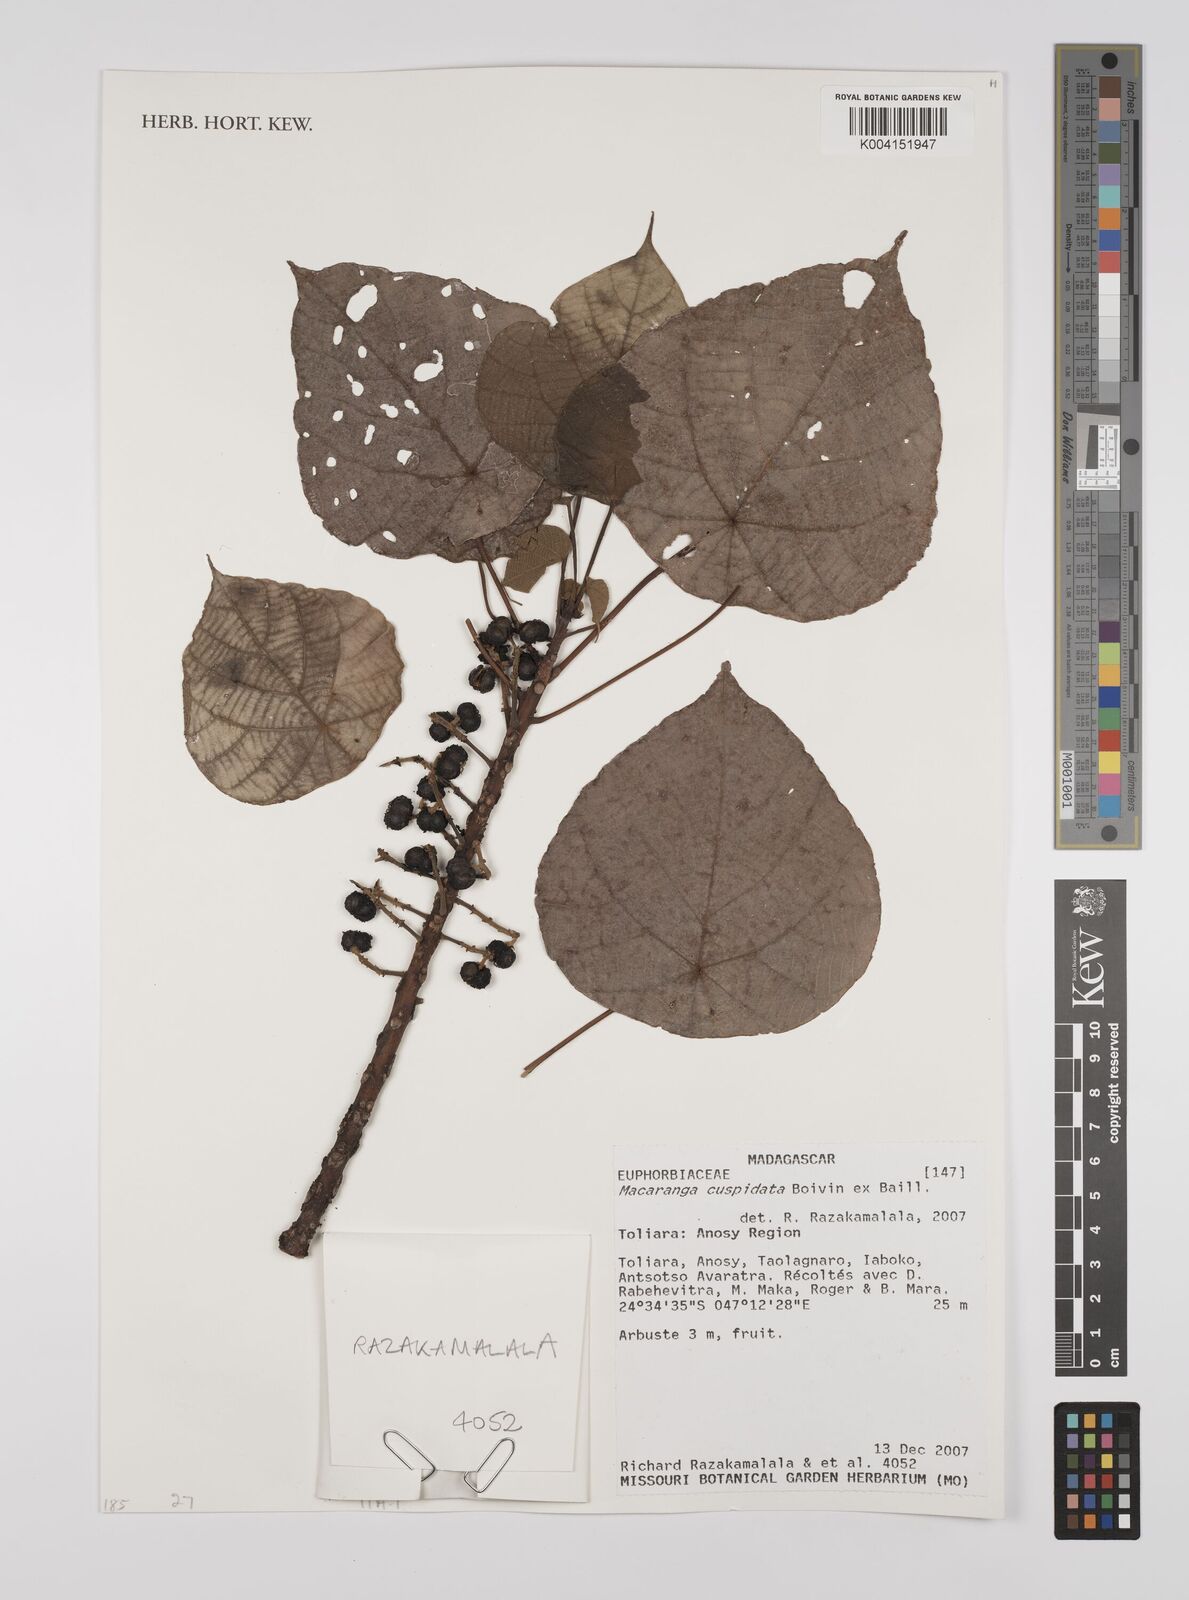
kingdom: Plantae
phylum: Tracheophyta
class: Magnoliopsida
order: Malpighiales
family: Euphorbiaceae
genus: Macaranga
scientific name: Macaranga cuspidata
